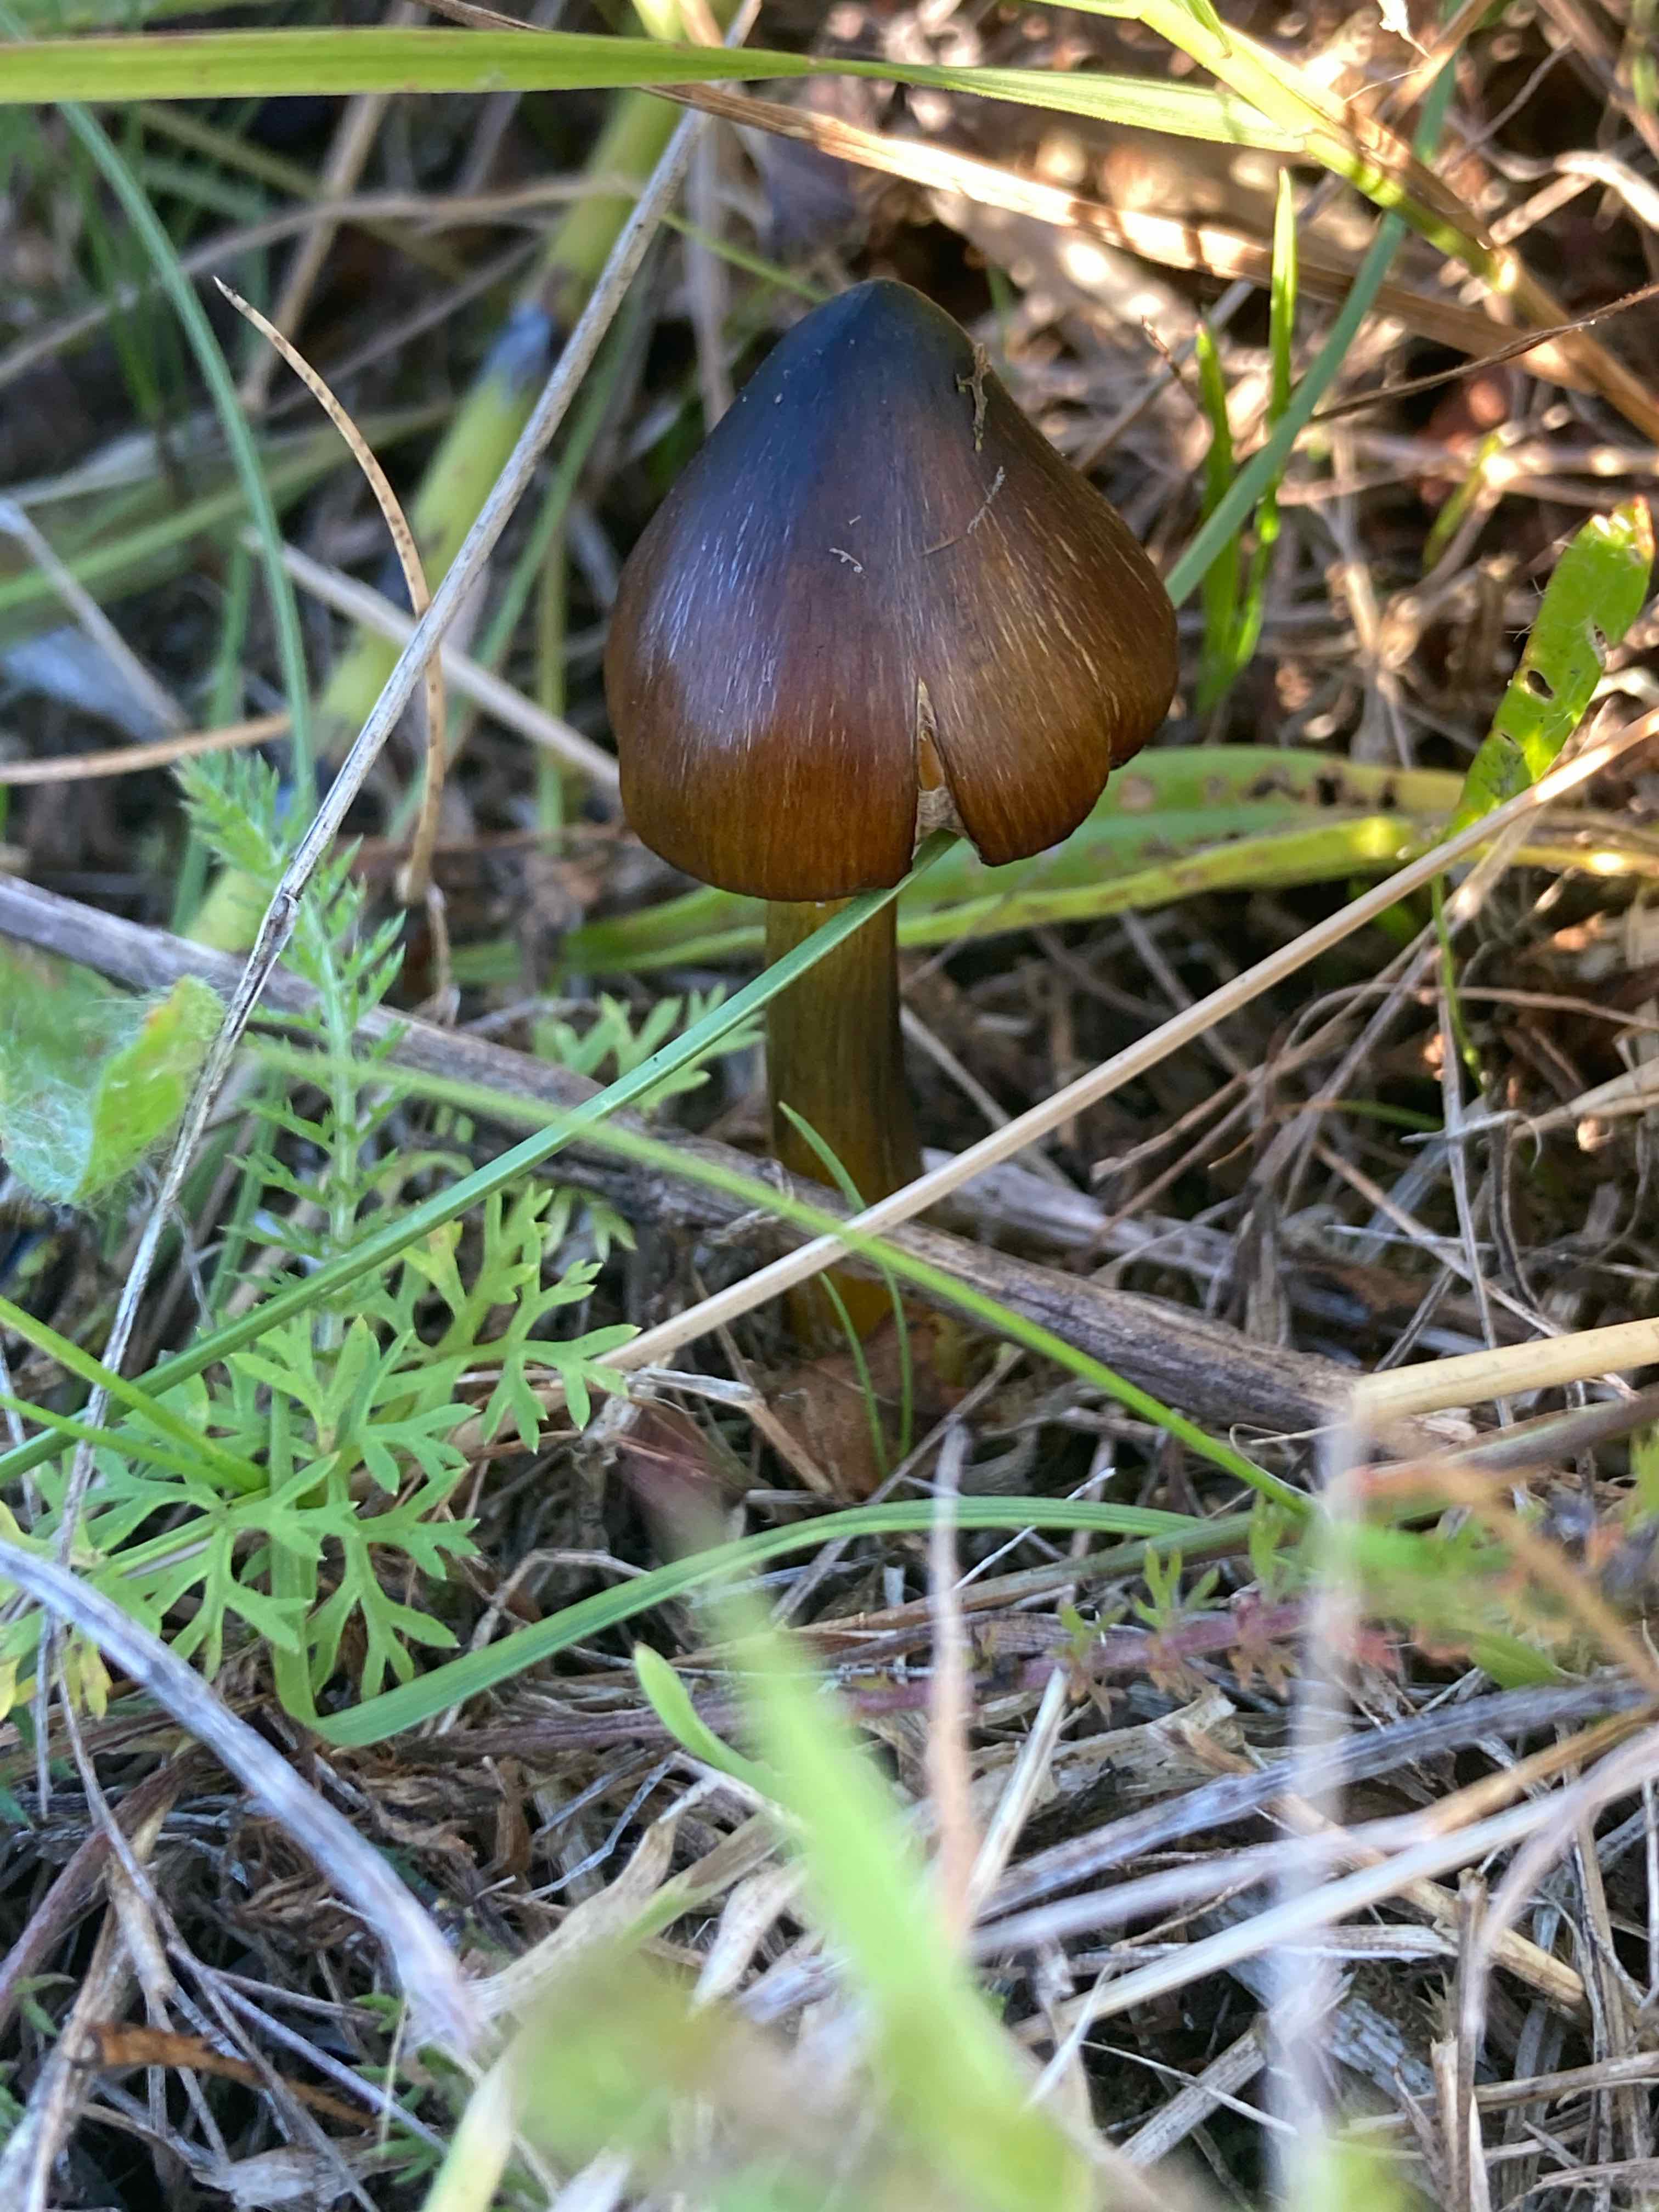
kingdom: Fungi
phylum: Basidiomycota
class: Agaricomycetes
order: Agaricales
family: Hygrophoraceae
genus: Hygrocybe
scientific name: Hygrocybe conica
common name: kegle-vokshat
